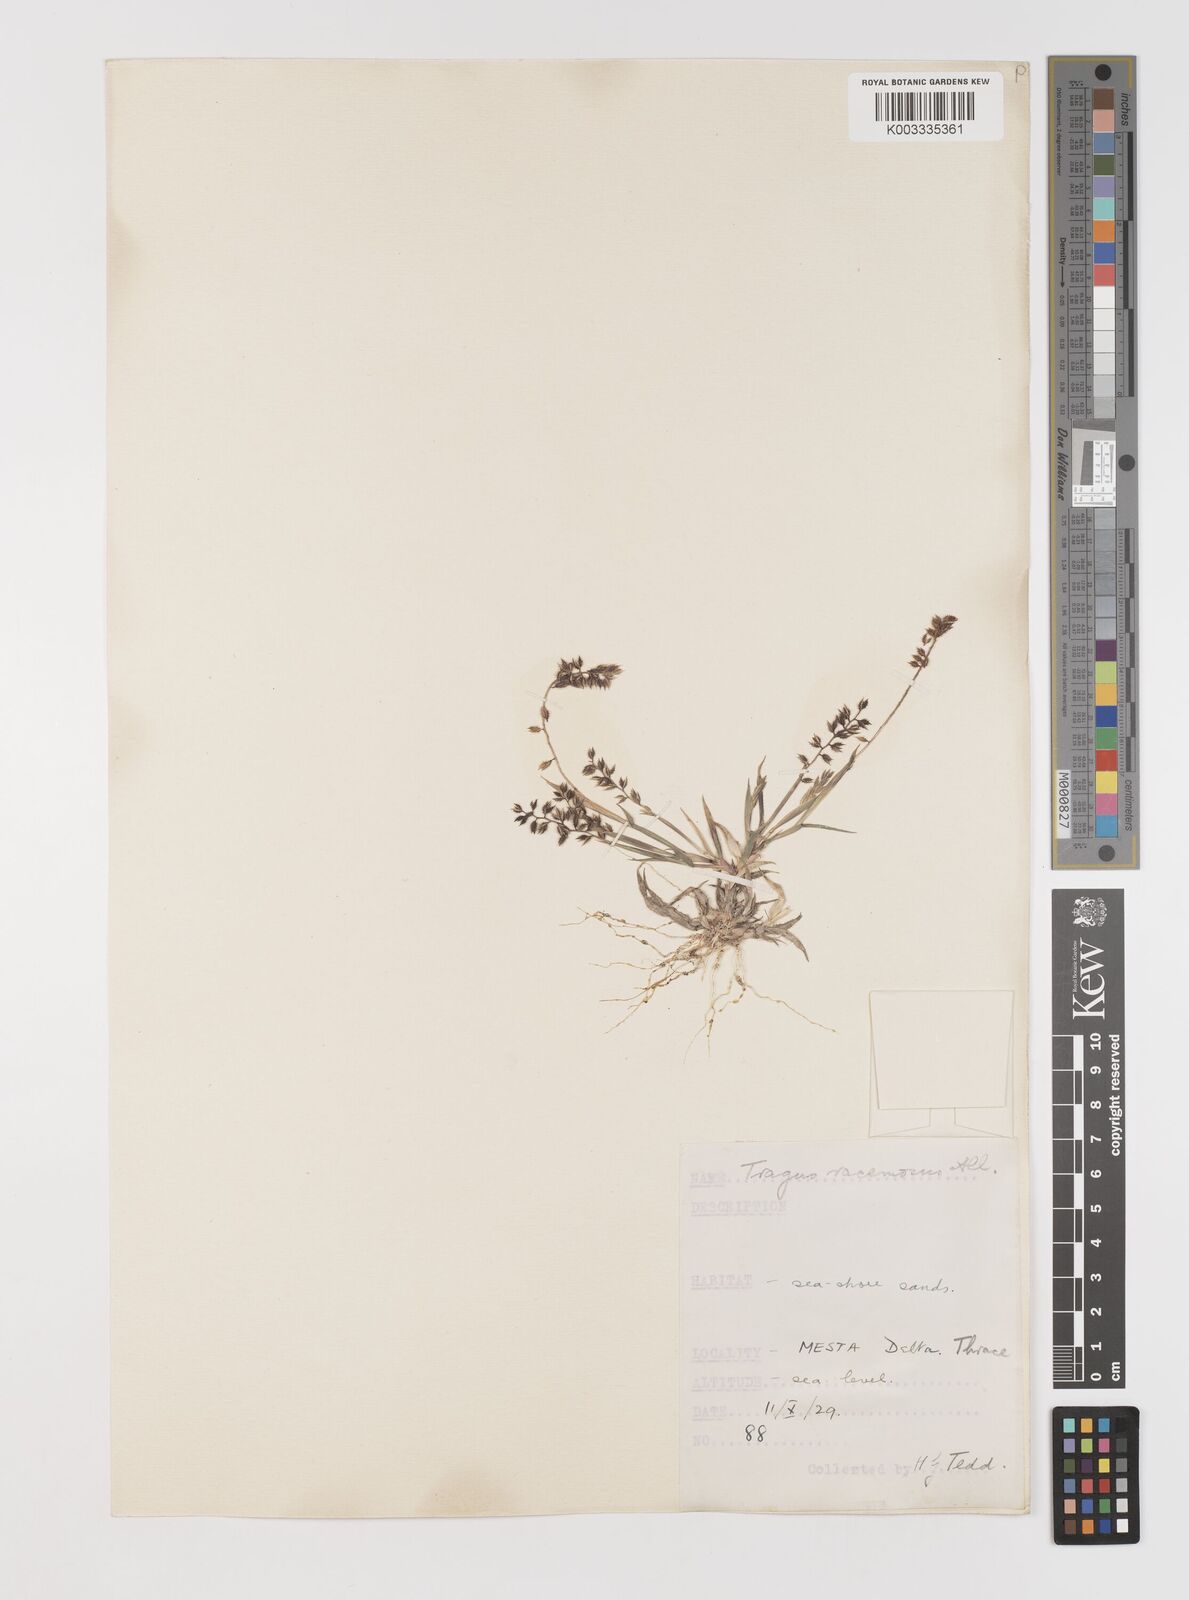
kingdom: Plantae
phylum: Tracheophyta
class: Liliopsida
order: Poales
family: Poaceae
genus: Tragus
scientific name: Tragus racemosus
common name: European bur-grass
